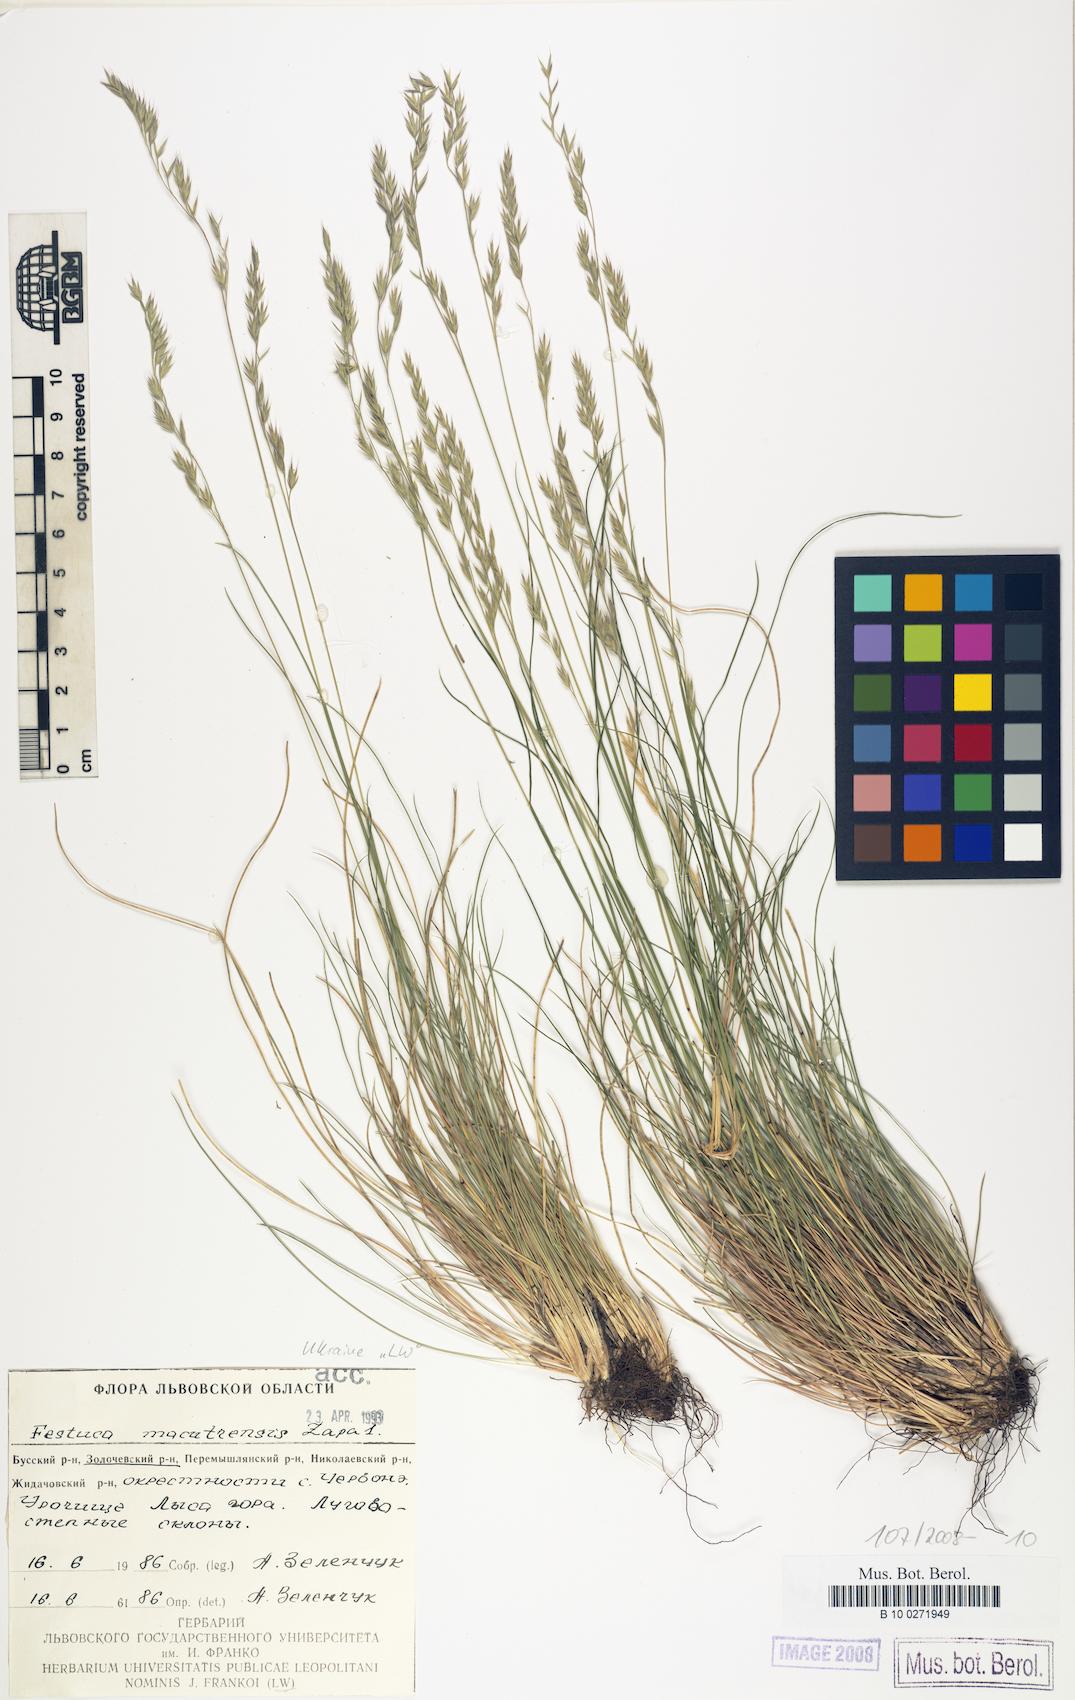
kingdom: Plantae
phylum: Tracheophyta
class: Liliopsida
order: Poales
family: Poaceae
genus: Festuca
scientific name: Festuca macutrensis
